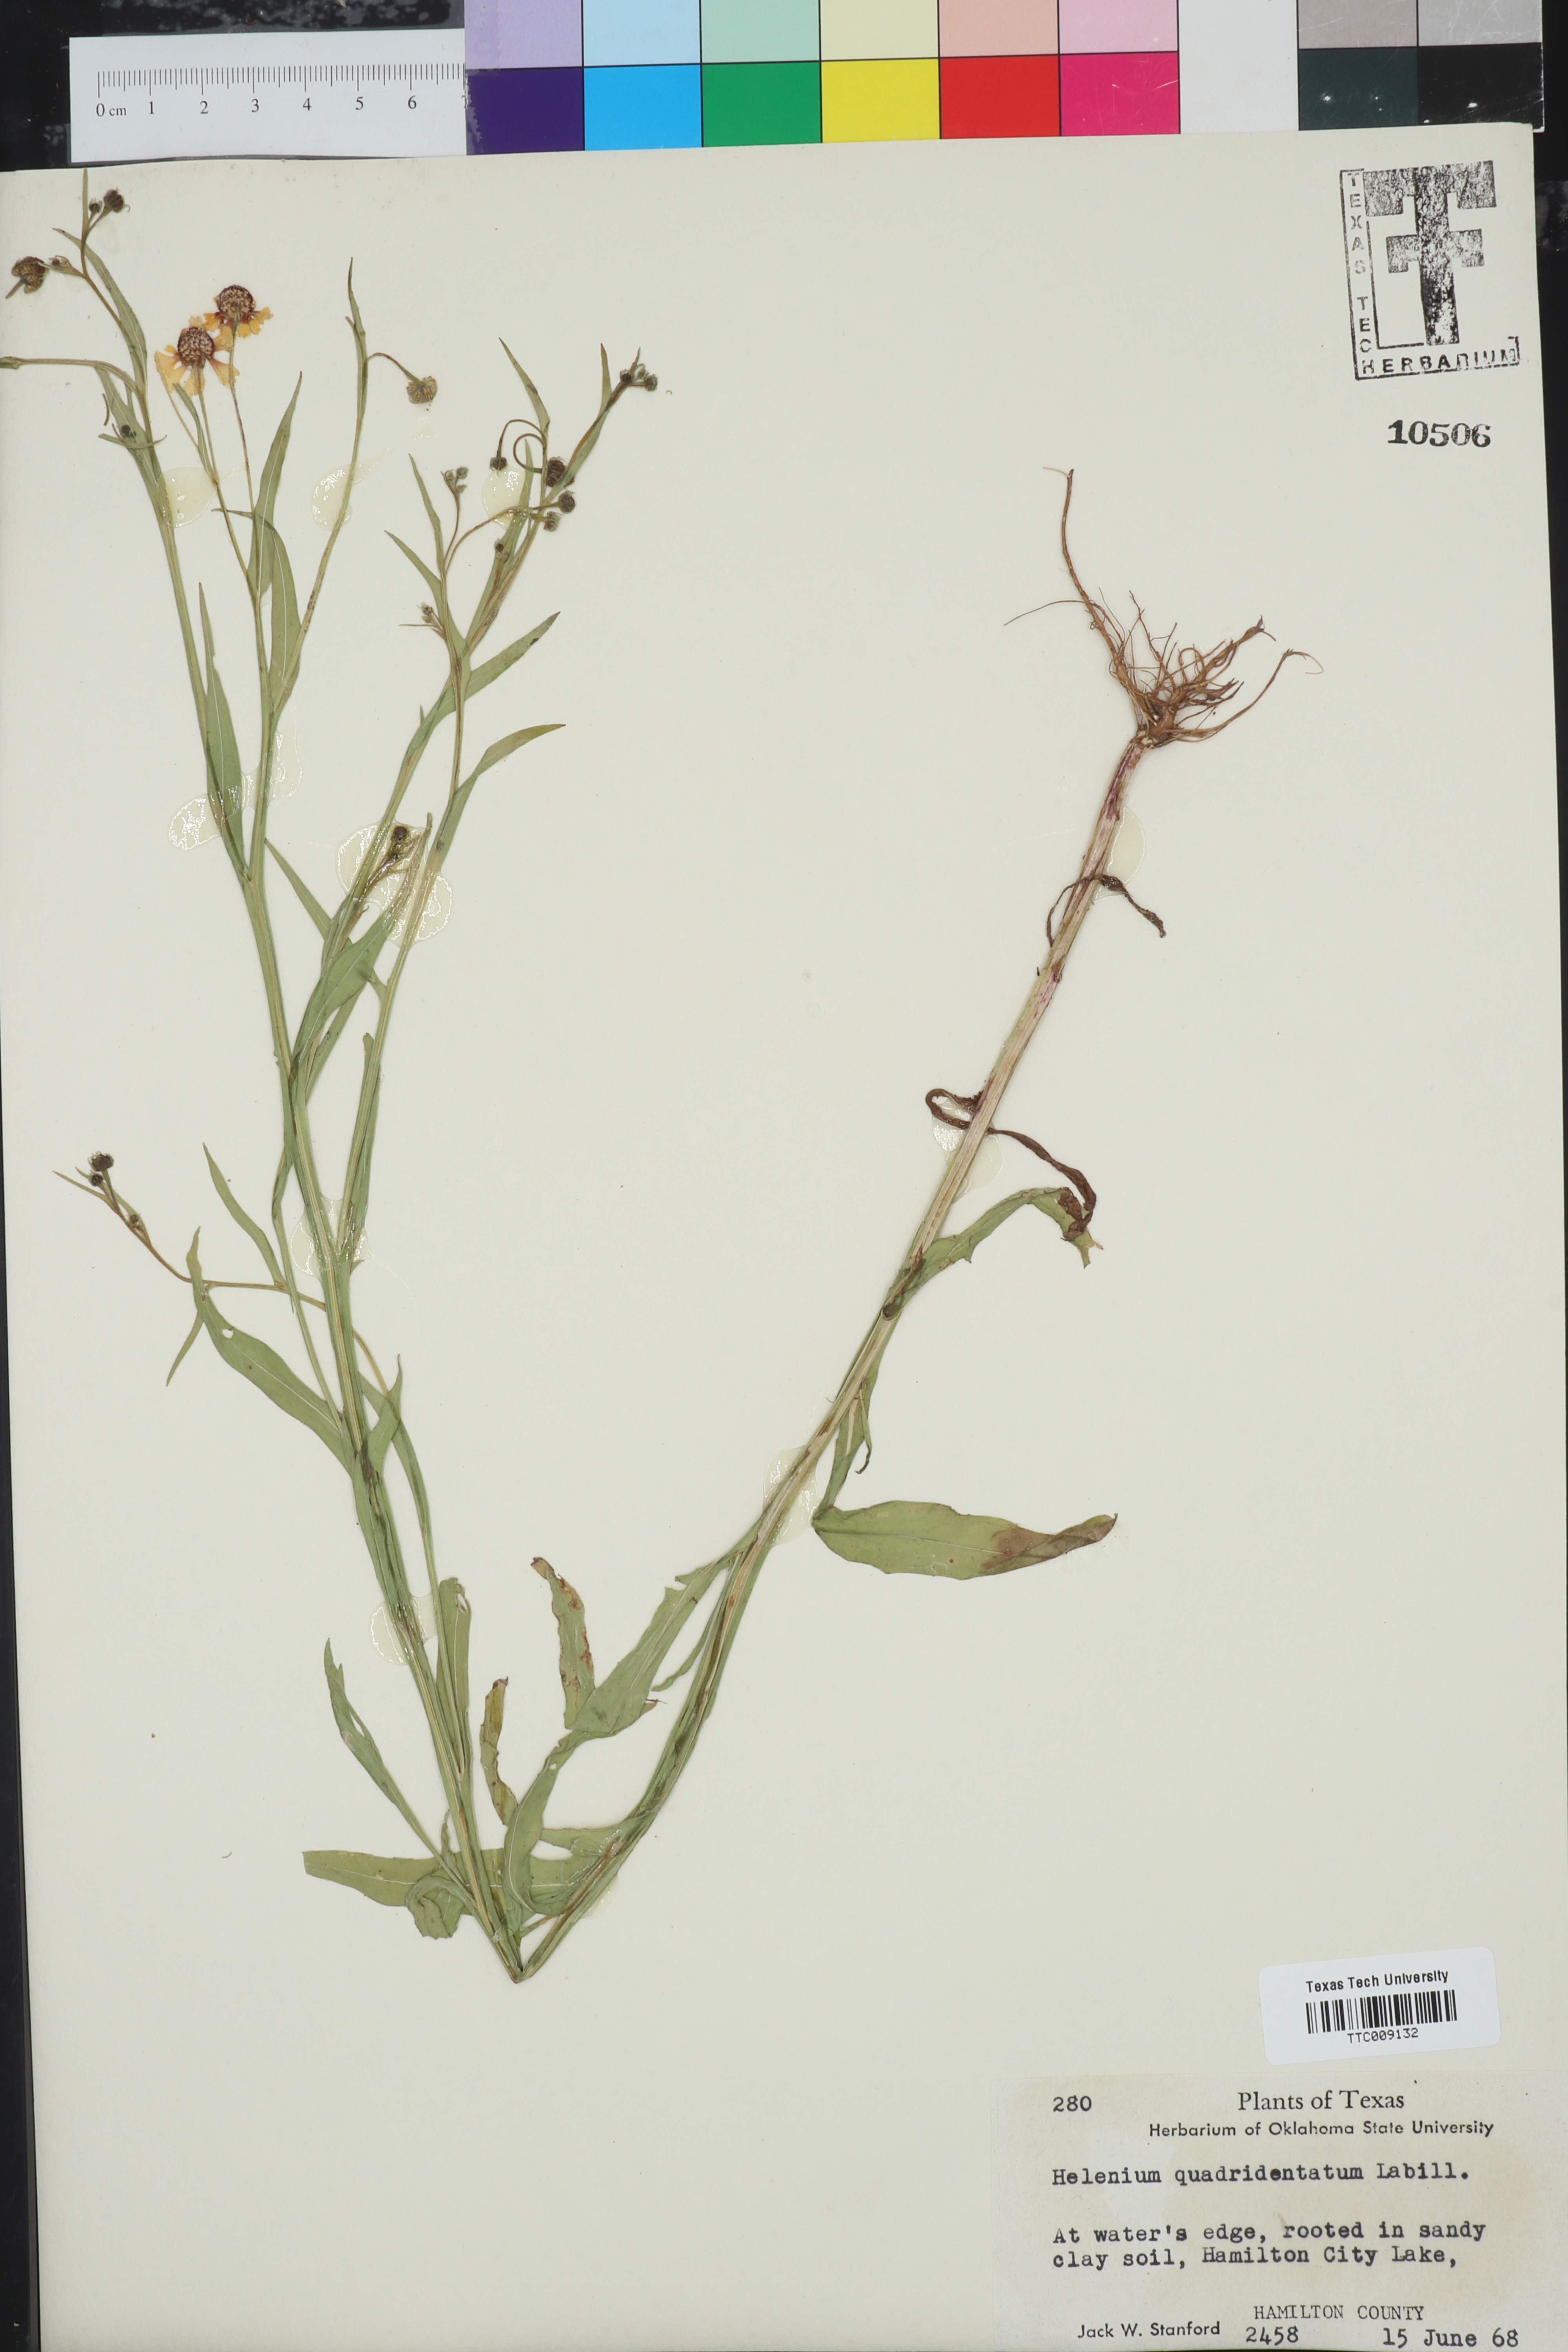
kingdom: Plantae
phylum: Tracheophyta
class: Magnoliopsida
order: Asterales
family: Asteraceae
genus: Helenium
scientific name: Helenium quadridentatum
